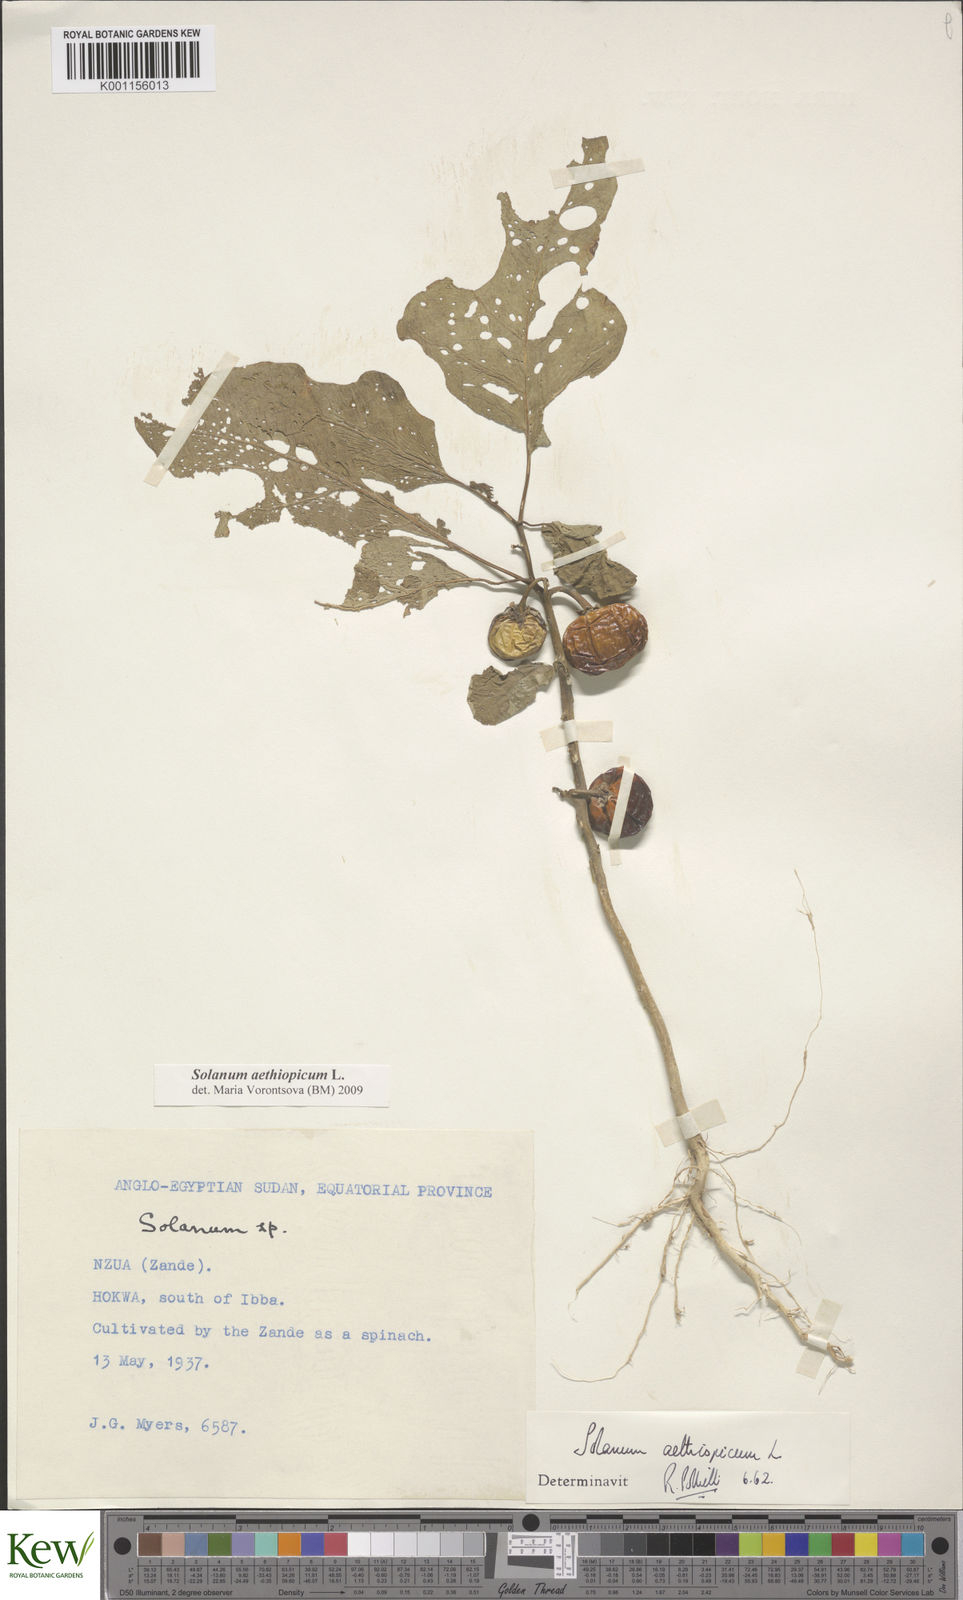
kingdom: Plantae
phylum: Tracheophyta
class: Magnoliopsida
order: Solanales
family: Solanaceae
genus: Solanum
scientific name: Solanum aethiopicum
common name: Gilo
